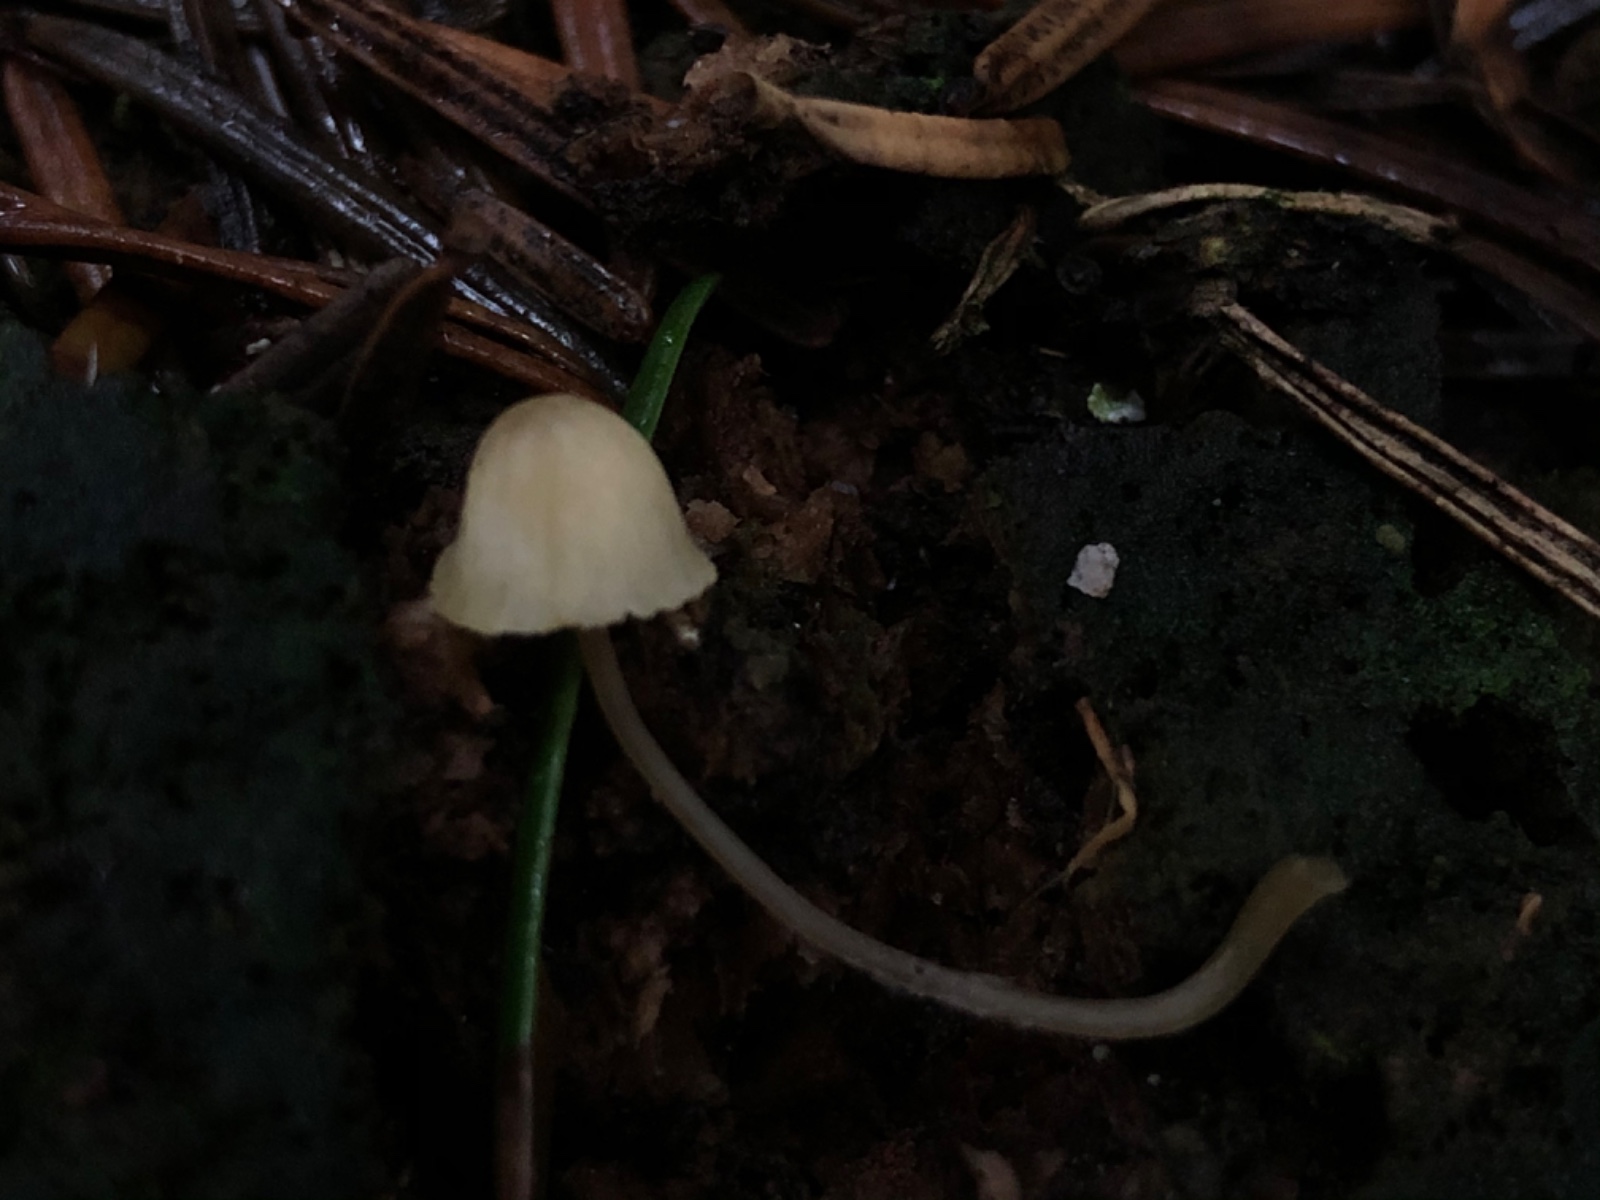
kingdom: Fungi
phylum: Basidiomycota
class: Agaricomycetes
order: Agaricales
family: Mycenaceae
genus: Mycena
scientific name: Mycena
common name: huesvamp
